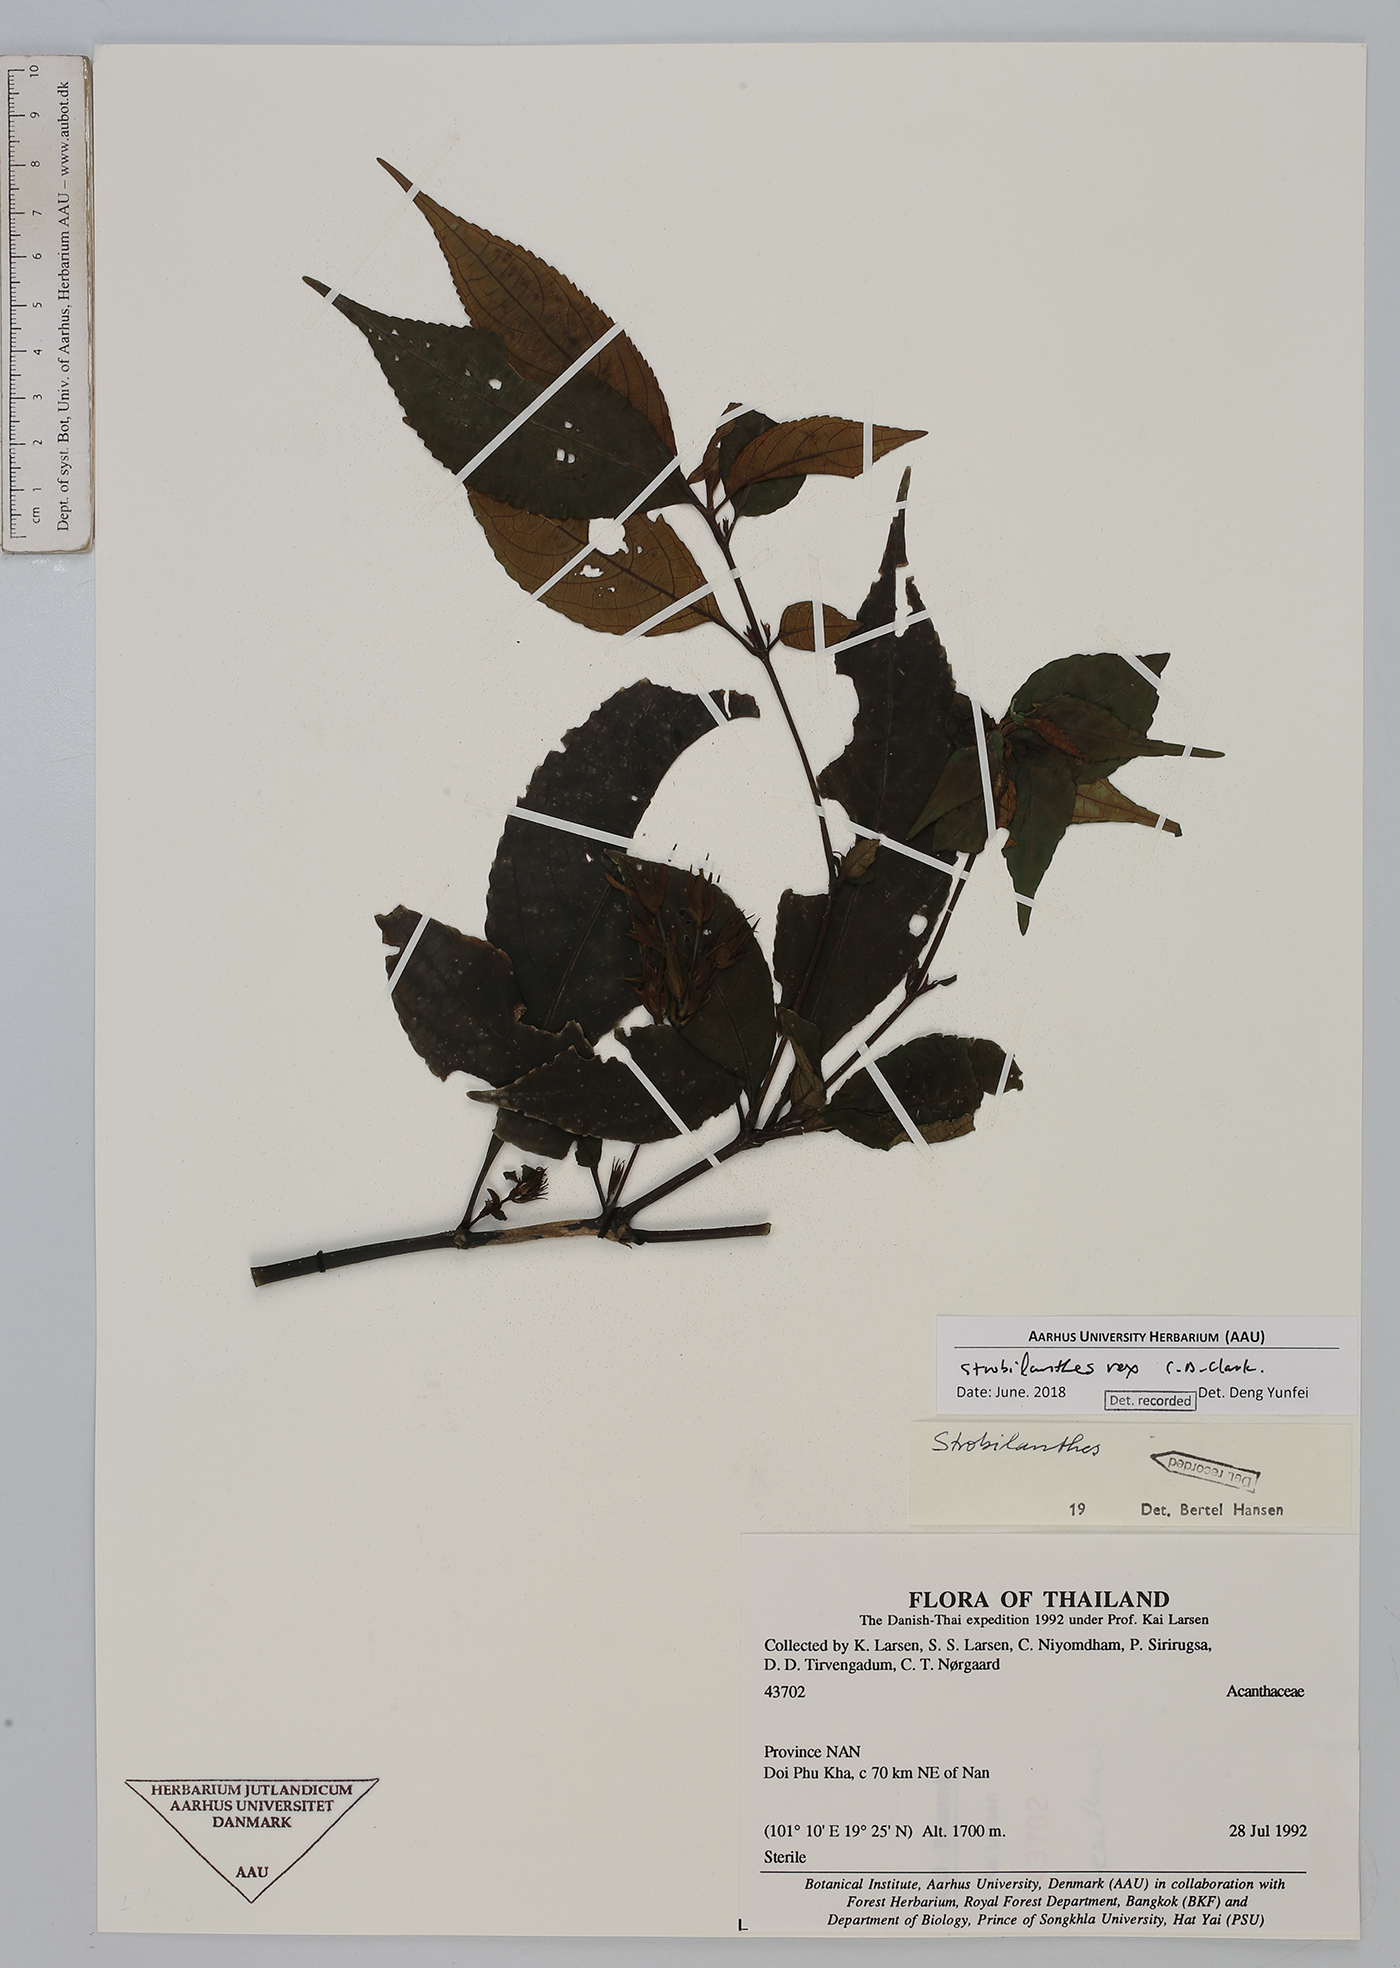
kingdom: Plantae
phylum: Tracheophyta
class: Magnoliopsida
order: Lamiales
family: Acanthaceae
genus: Strobilanthes
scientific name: Strobilanthes dimorphotricha
